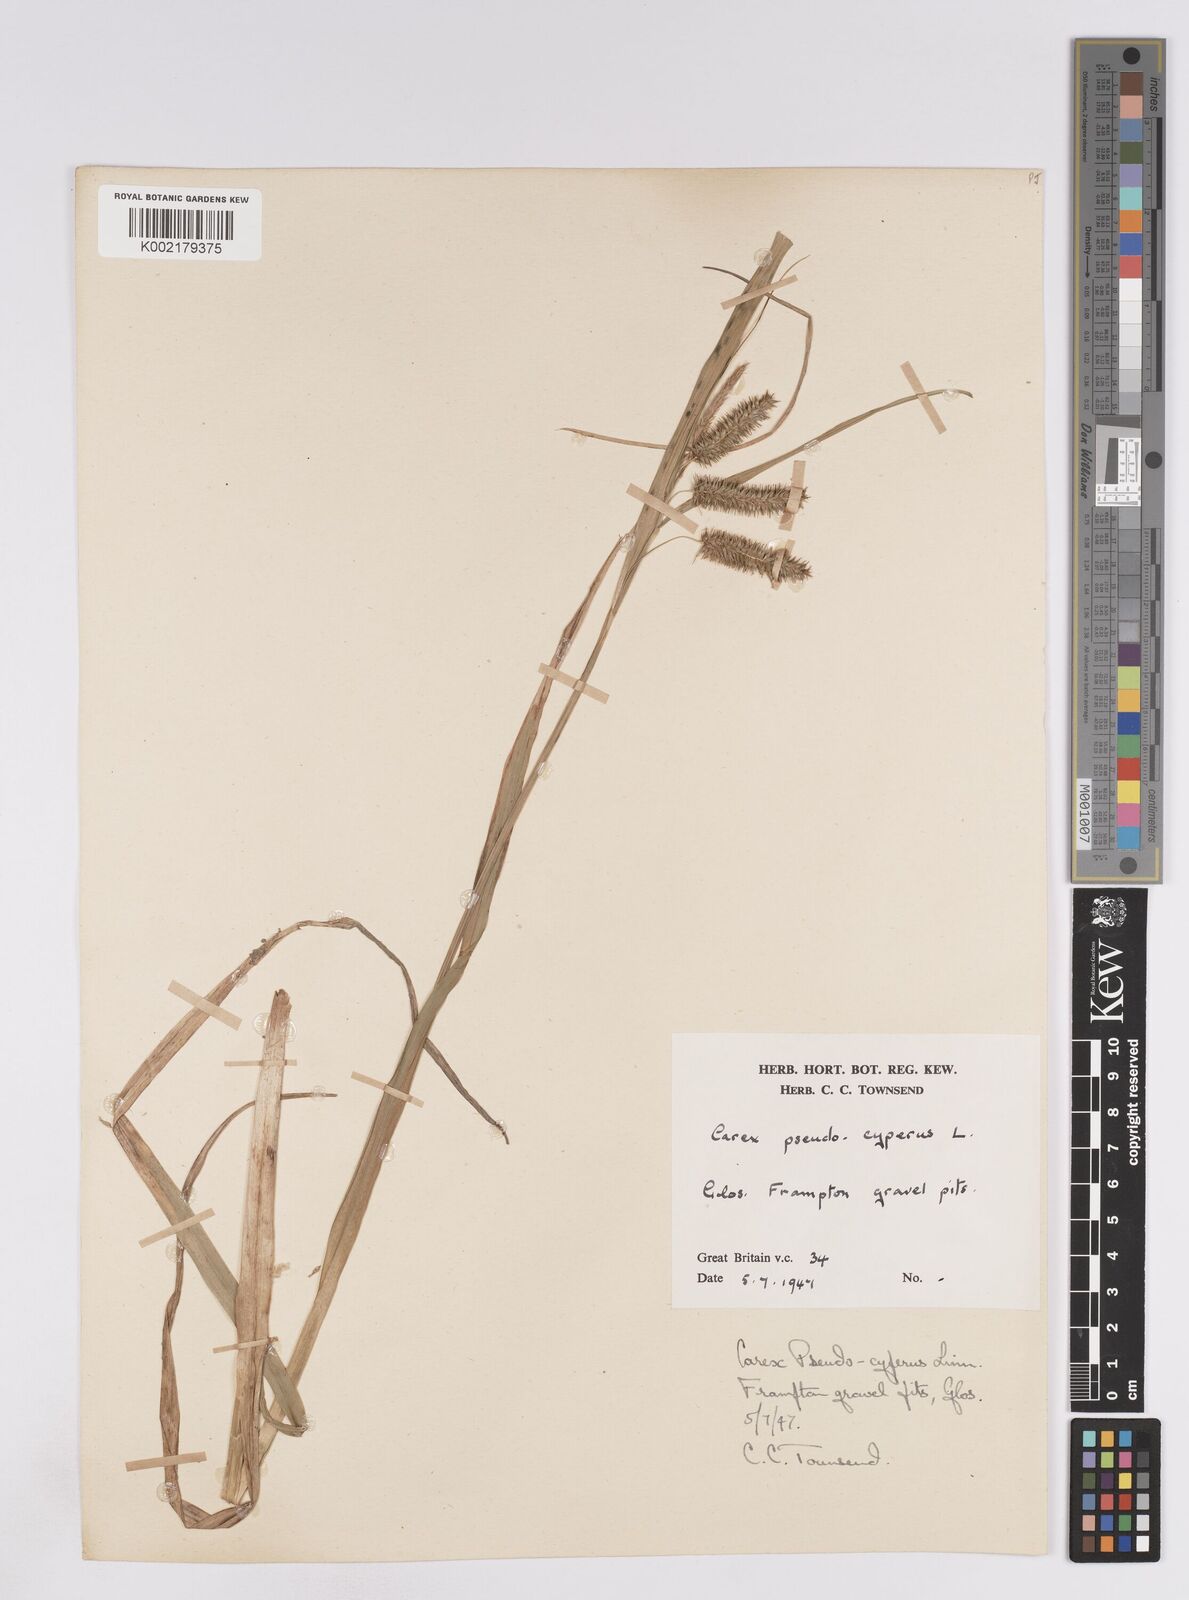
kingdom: Plantae
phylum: Tracheophyta
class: Liliopsida
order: Poales
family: Cyperaceae
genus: Carex
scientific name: Carex pseudocyperus
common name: Cyperus sedge
